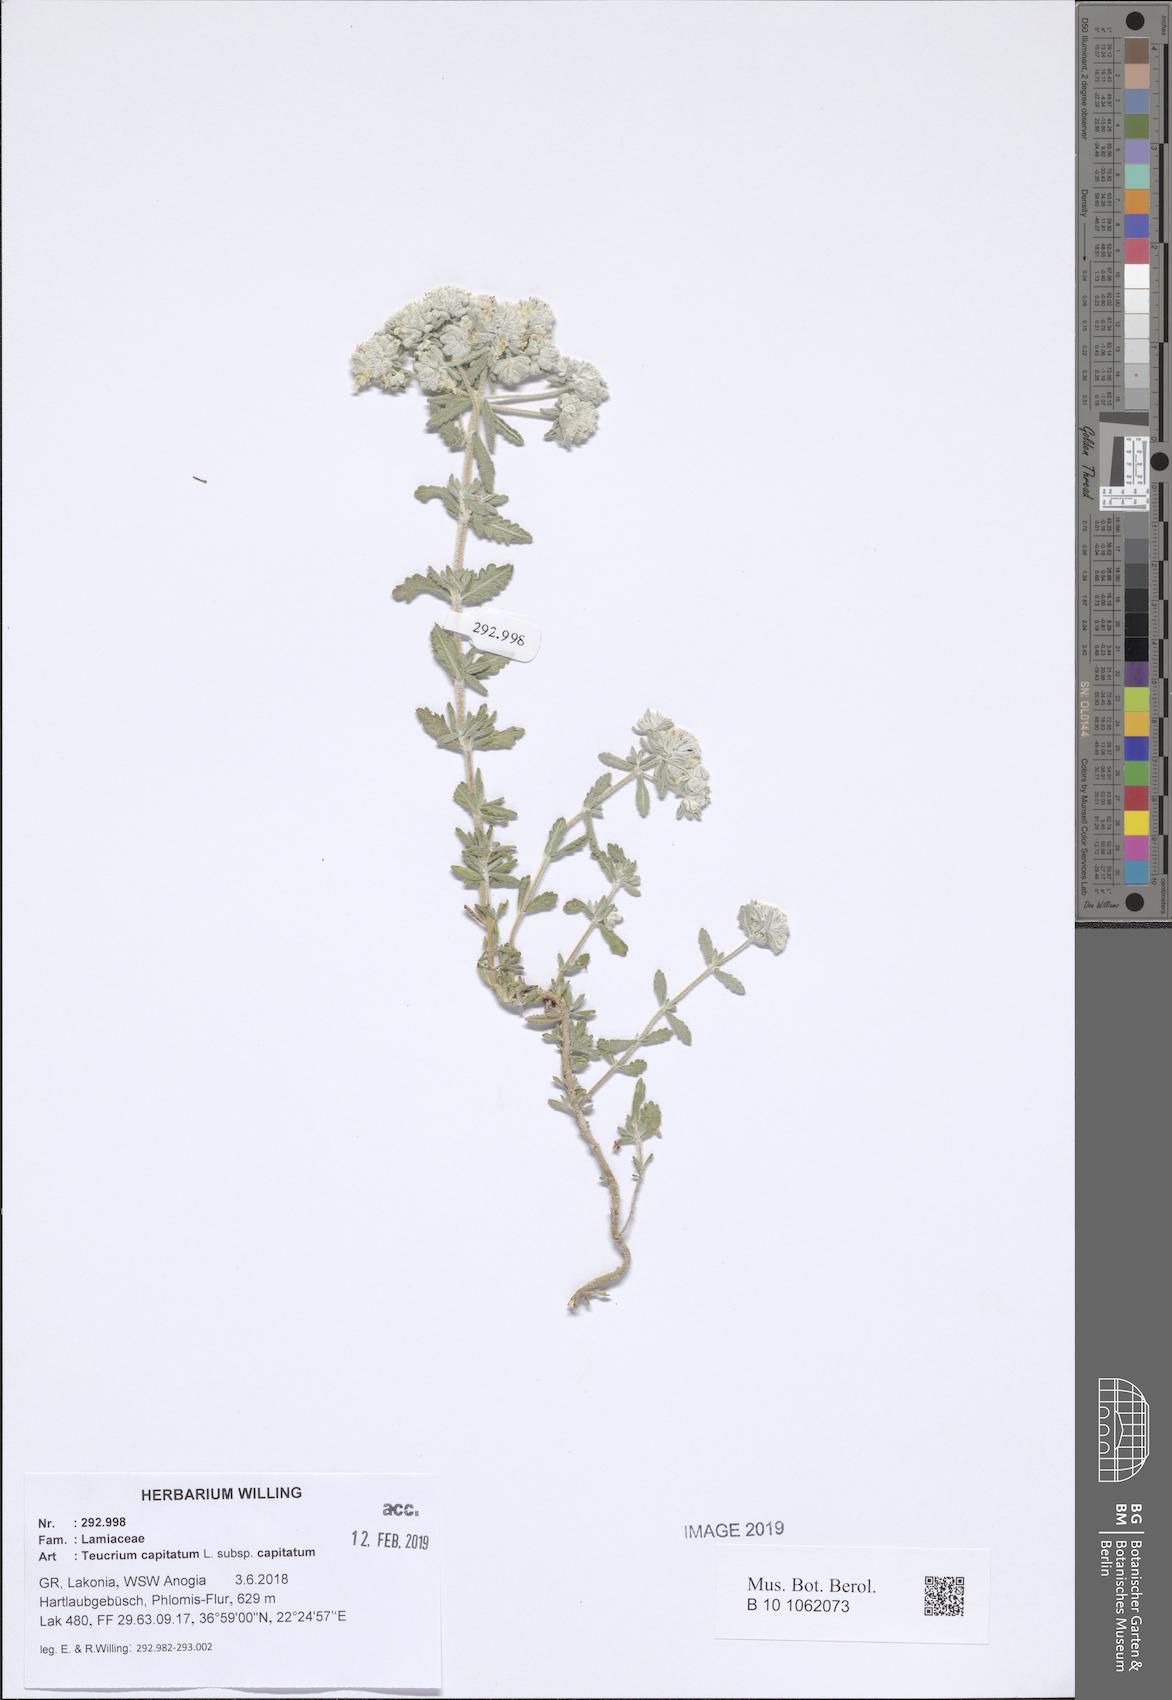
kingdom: Plantae
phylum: Tracheophyta
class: Magnoliopsida
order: Lamiales
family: Lamiaceae
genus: Teucrium
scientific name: Teucrium capitatum
